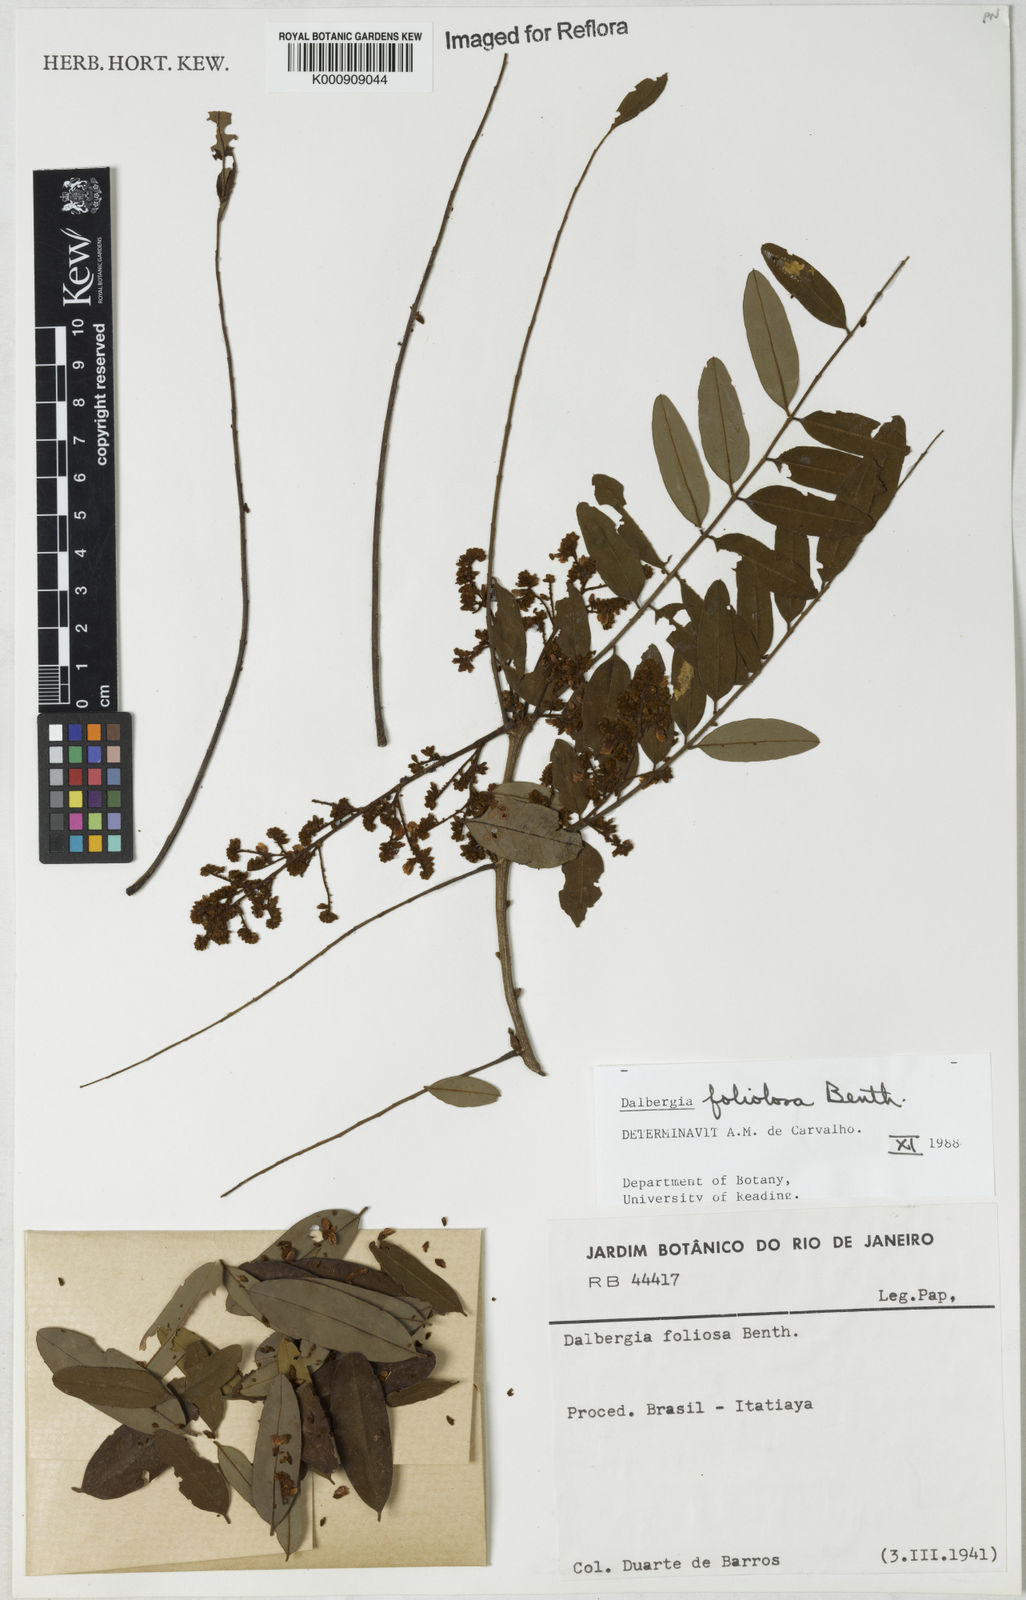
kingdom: Plantae
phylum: Tracheophyta
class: Magnoliopsida
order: Fabales
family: Fabaceae
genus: Dalbergia
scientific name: Dalbergia foliolosa
